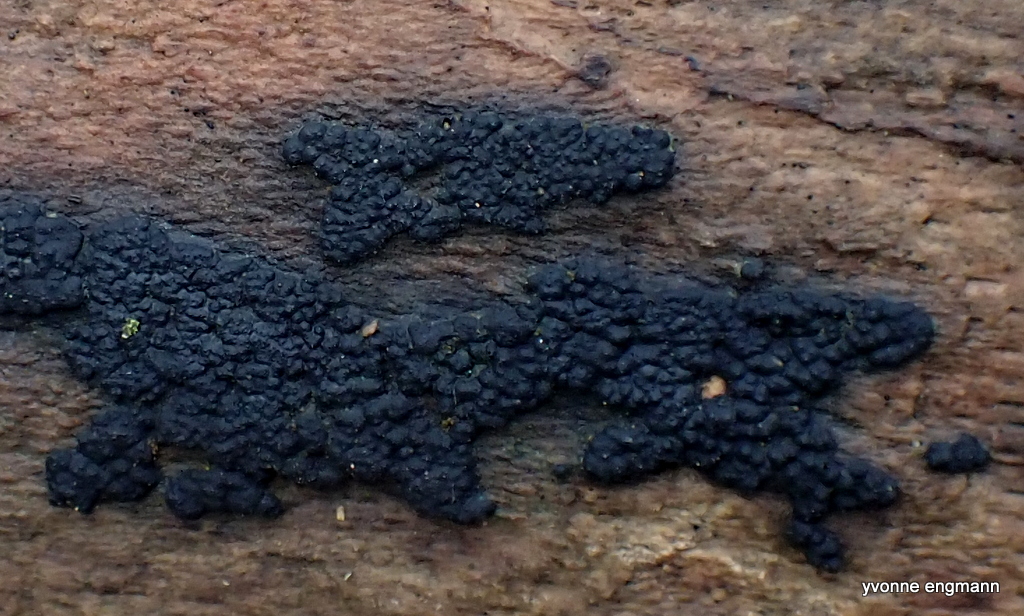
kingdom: Fungi
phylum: Ascomycota
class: Sordariomycetes
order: Xylariales
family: Xylariaceae
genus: Nemania
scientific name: Nemania
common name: kuldyne
